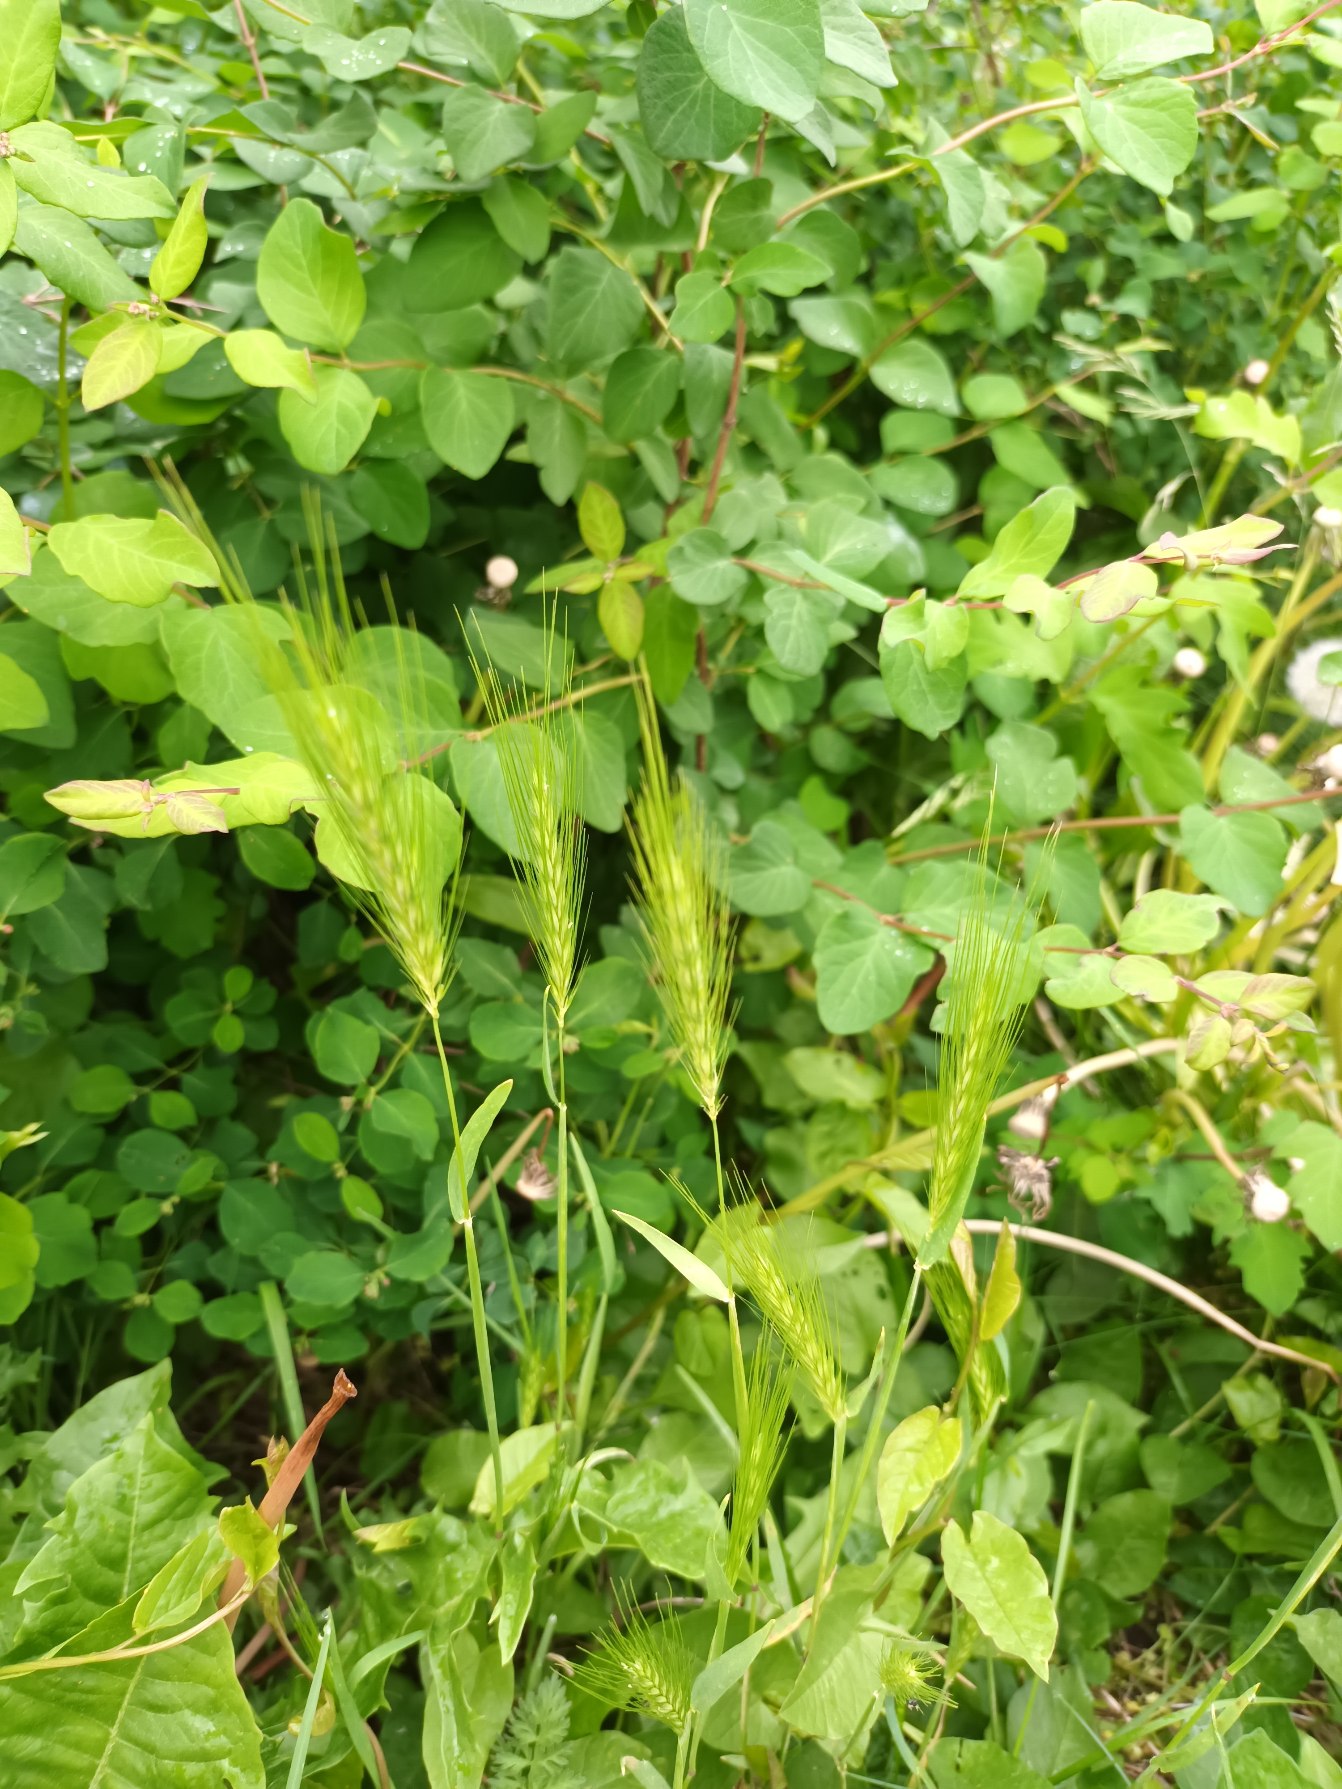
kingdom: Plantae
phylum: Tracheophyta
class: Liliopsida
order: Poales
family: Poaceae
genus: Hordeum
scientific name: Hordeum murinum
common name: Gold byg
